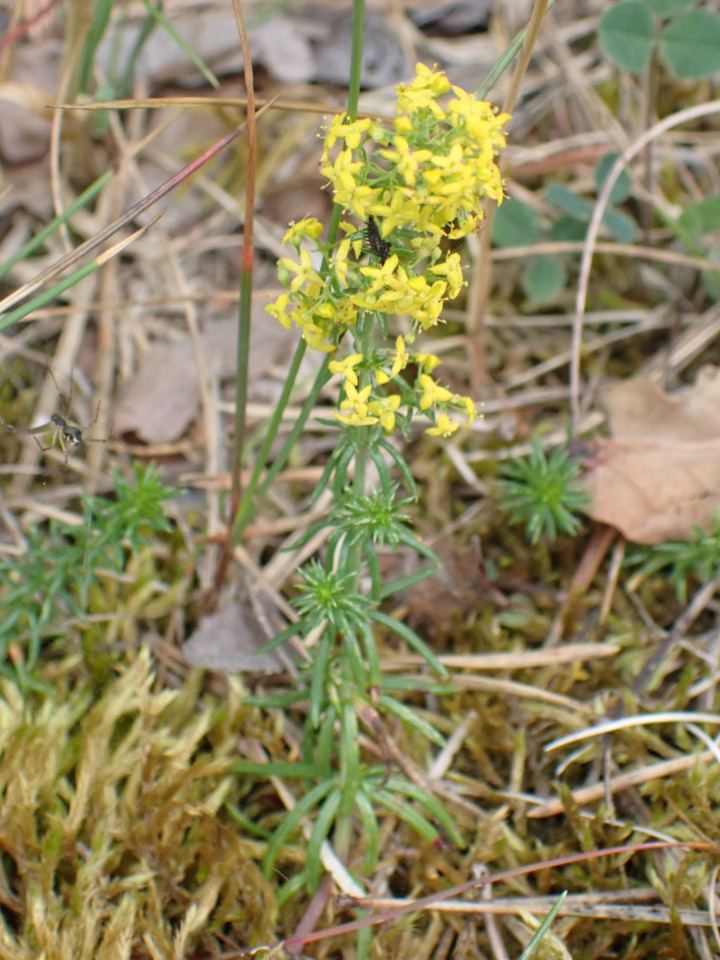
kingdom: Plantae
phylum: Tracheophyta
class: Magnoliopsida
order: Gentianales
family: Rubiaceae
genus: Galium
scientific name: Galium verum
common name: Gul snerre
